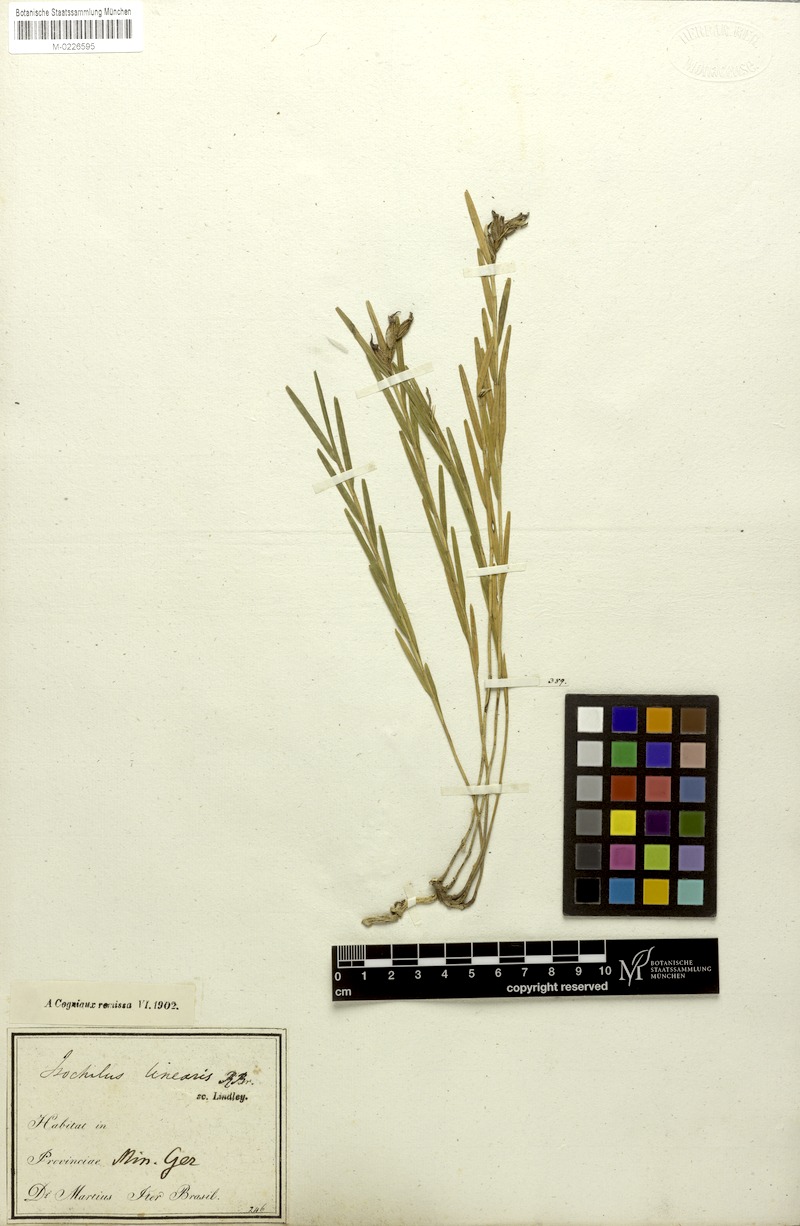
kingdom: Plantae
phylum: Tracheophyta
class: Liliopsida
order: Asparagales
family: Orchidaceae
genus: Isochilus
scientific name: Isochilus linearis
